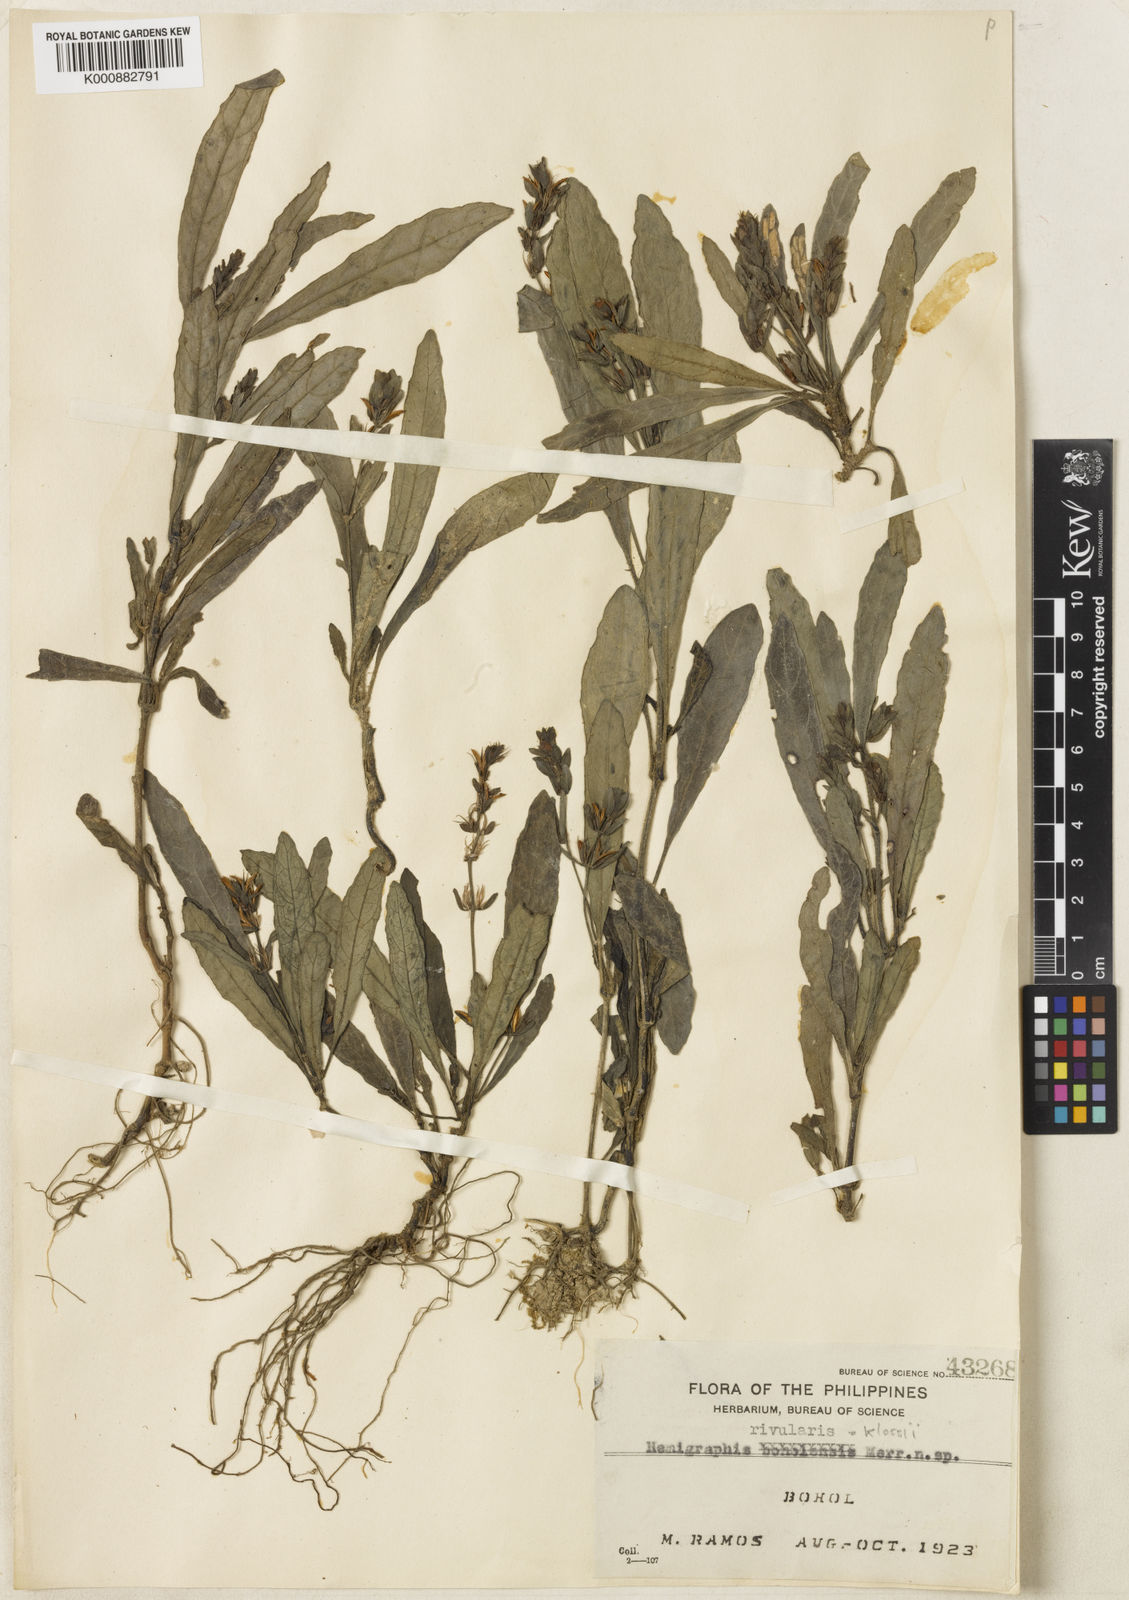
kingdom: Plantae
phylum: Tracheophyta
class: Magnoliopsida
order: Lamiales
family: Acanthaceae
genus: Strobilanthes
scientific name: Strobilanthes klossii
